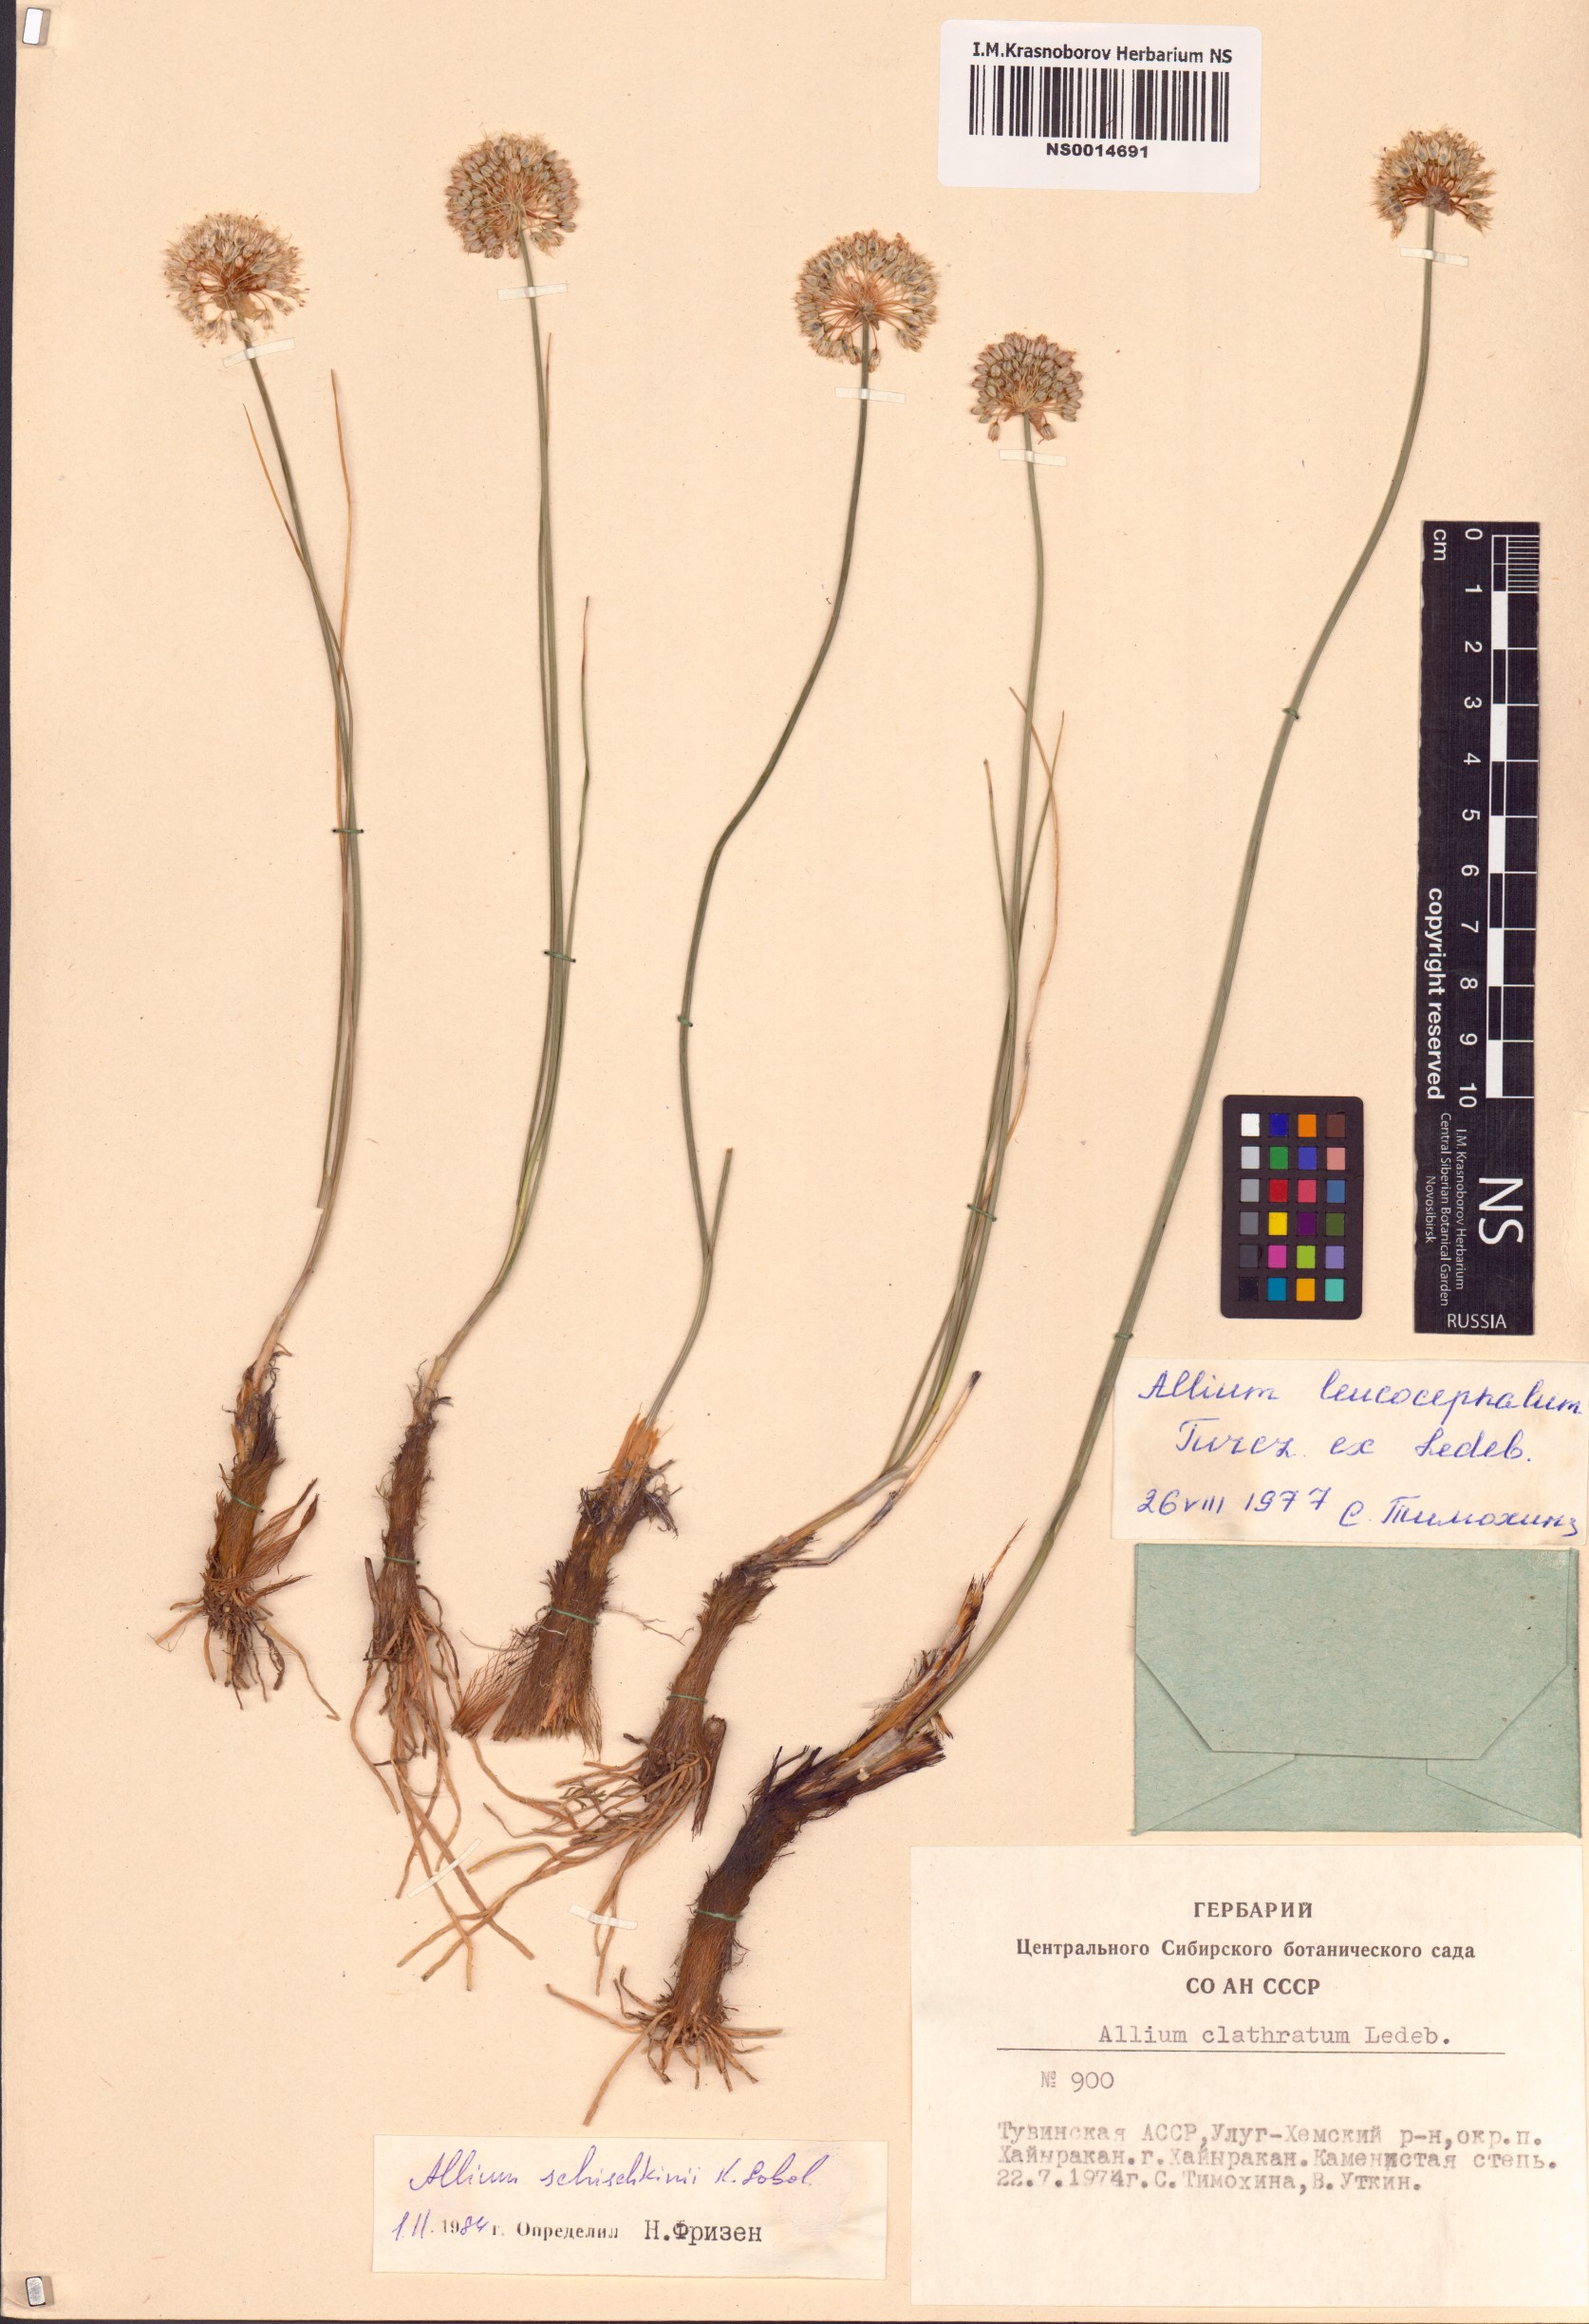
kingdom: Plantae
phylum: Tracheophyta
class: Liliopsida
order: Asparagales
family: Amaryllidaceae
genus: Allium
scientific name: Allium schischkinii
